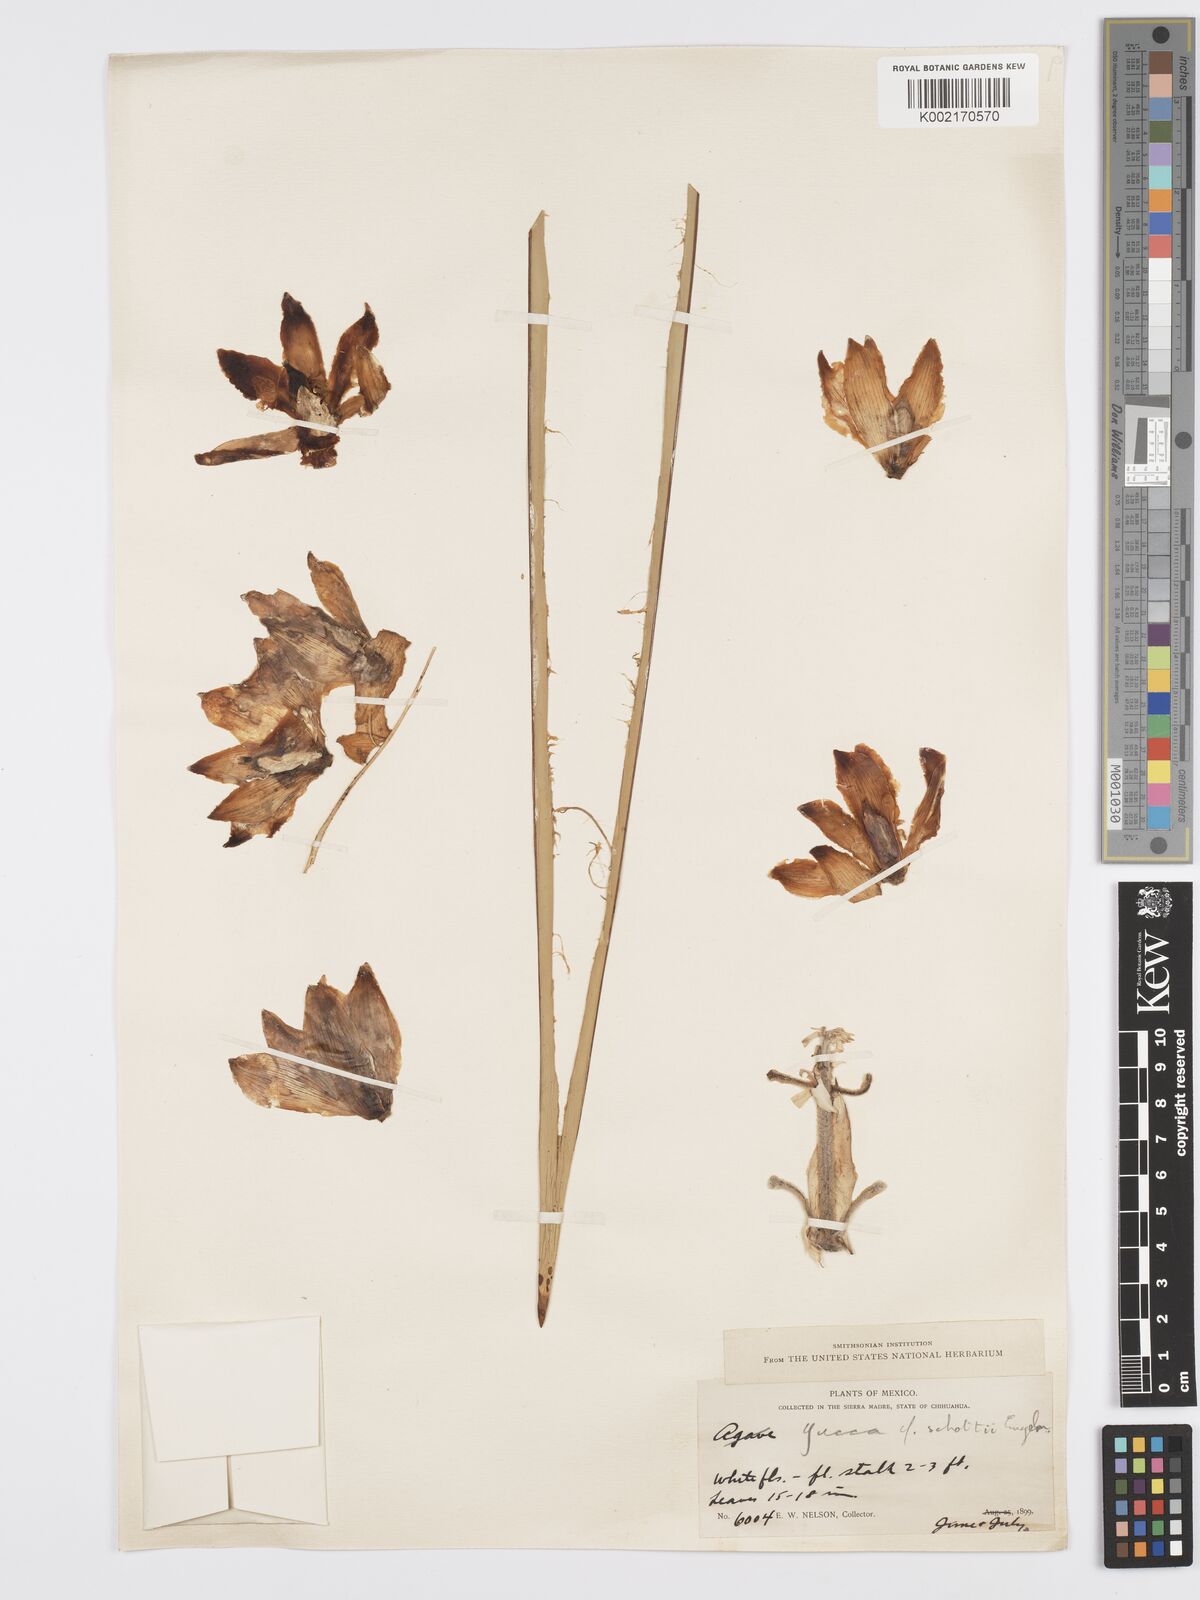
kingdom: Plantae
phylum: Tracheophyta
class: Liliopsida
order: Asparagales
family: Asparagaceae
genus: Yucca
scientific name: Yucca schottii
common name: Hoary yucca
